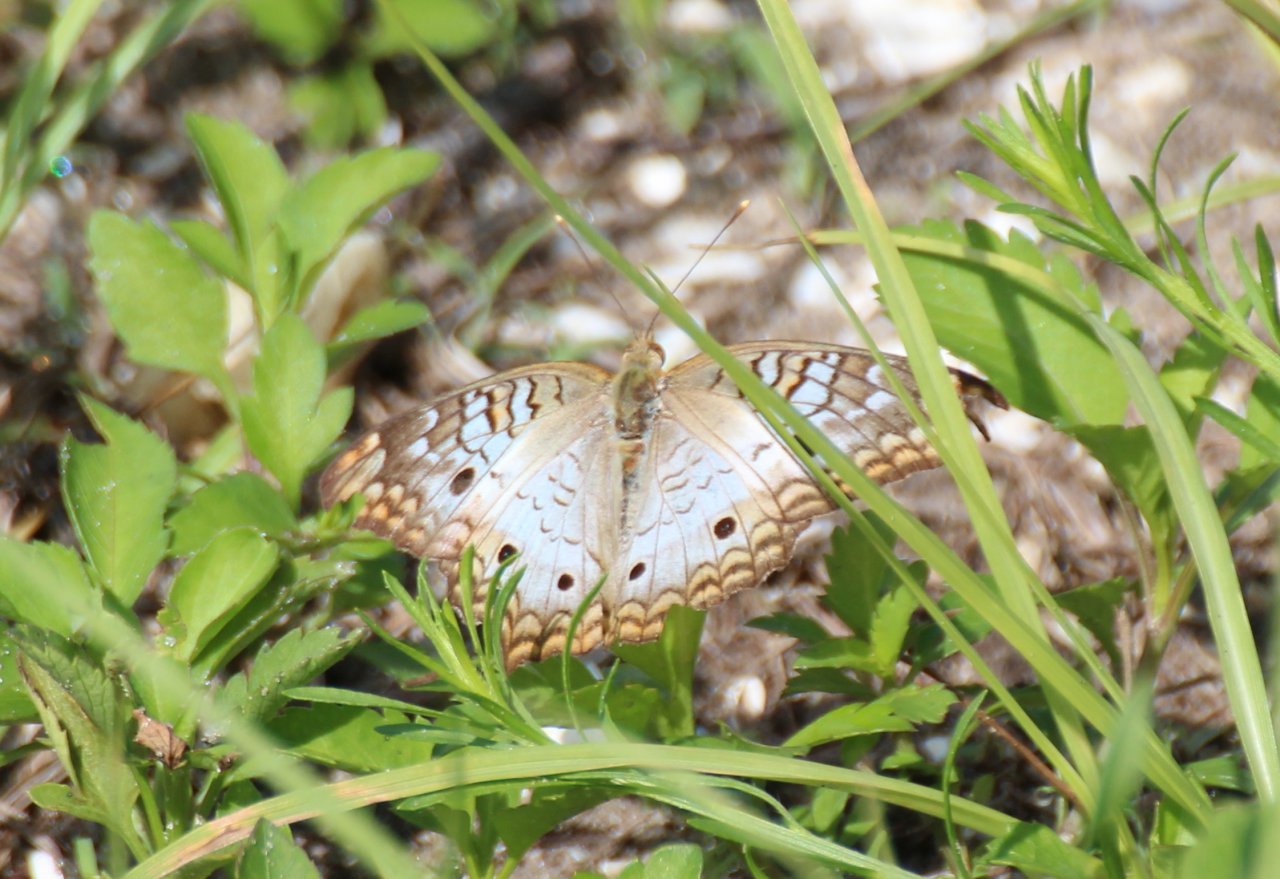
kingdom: Animalia
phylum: Arthropoda
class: Insecta
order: Lepidoptera
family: Nymphalidae
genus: Anartia
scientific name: Anartia jatrophae
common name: White Peacock
